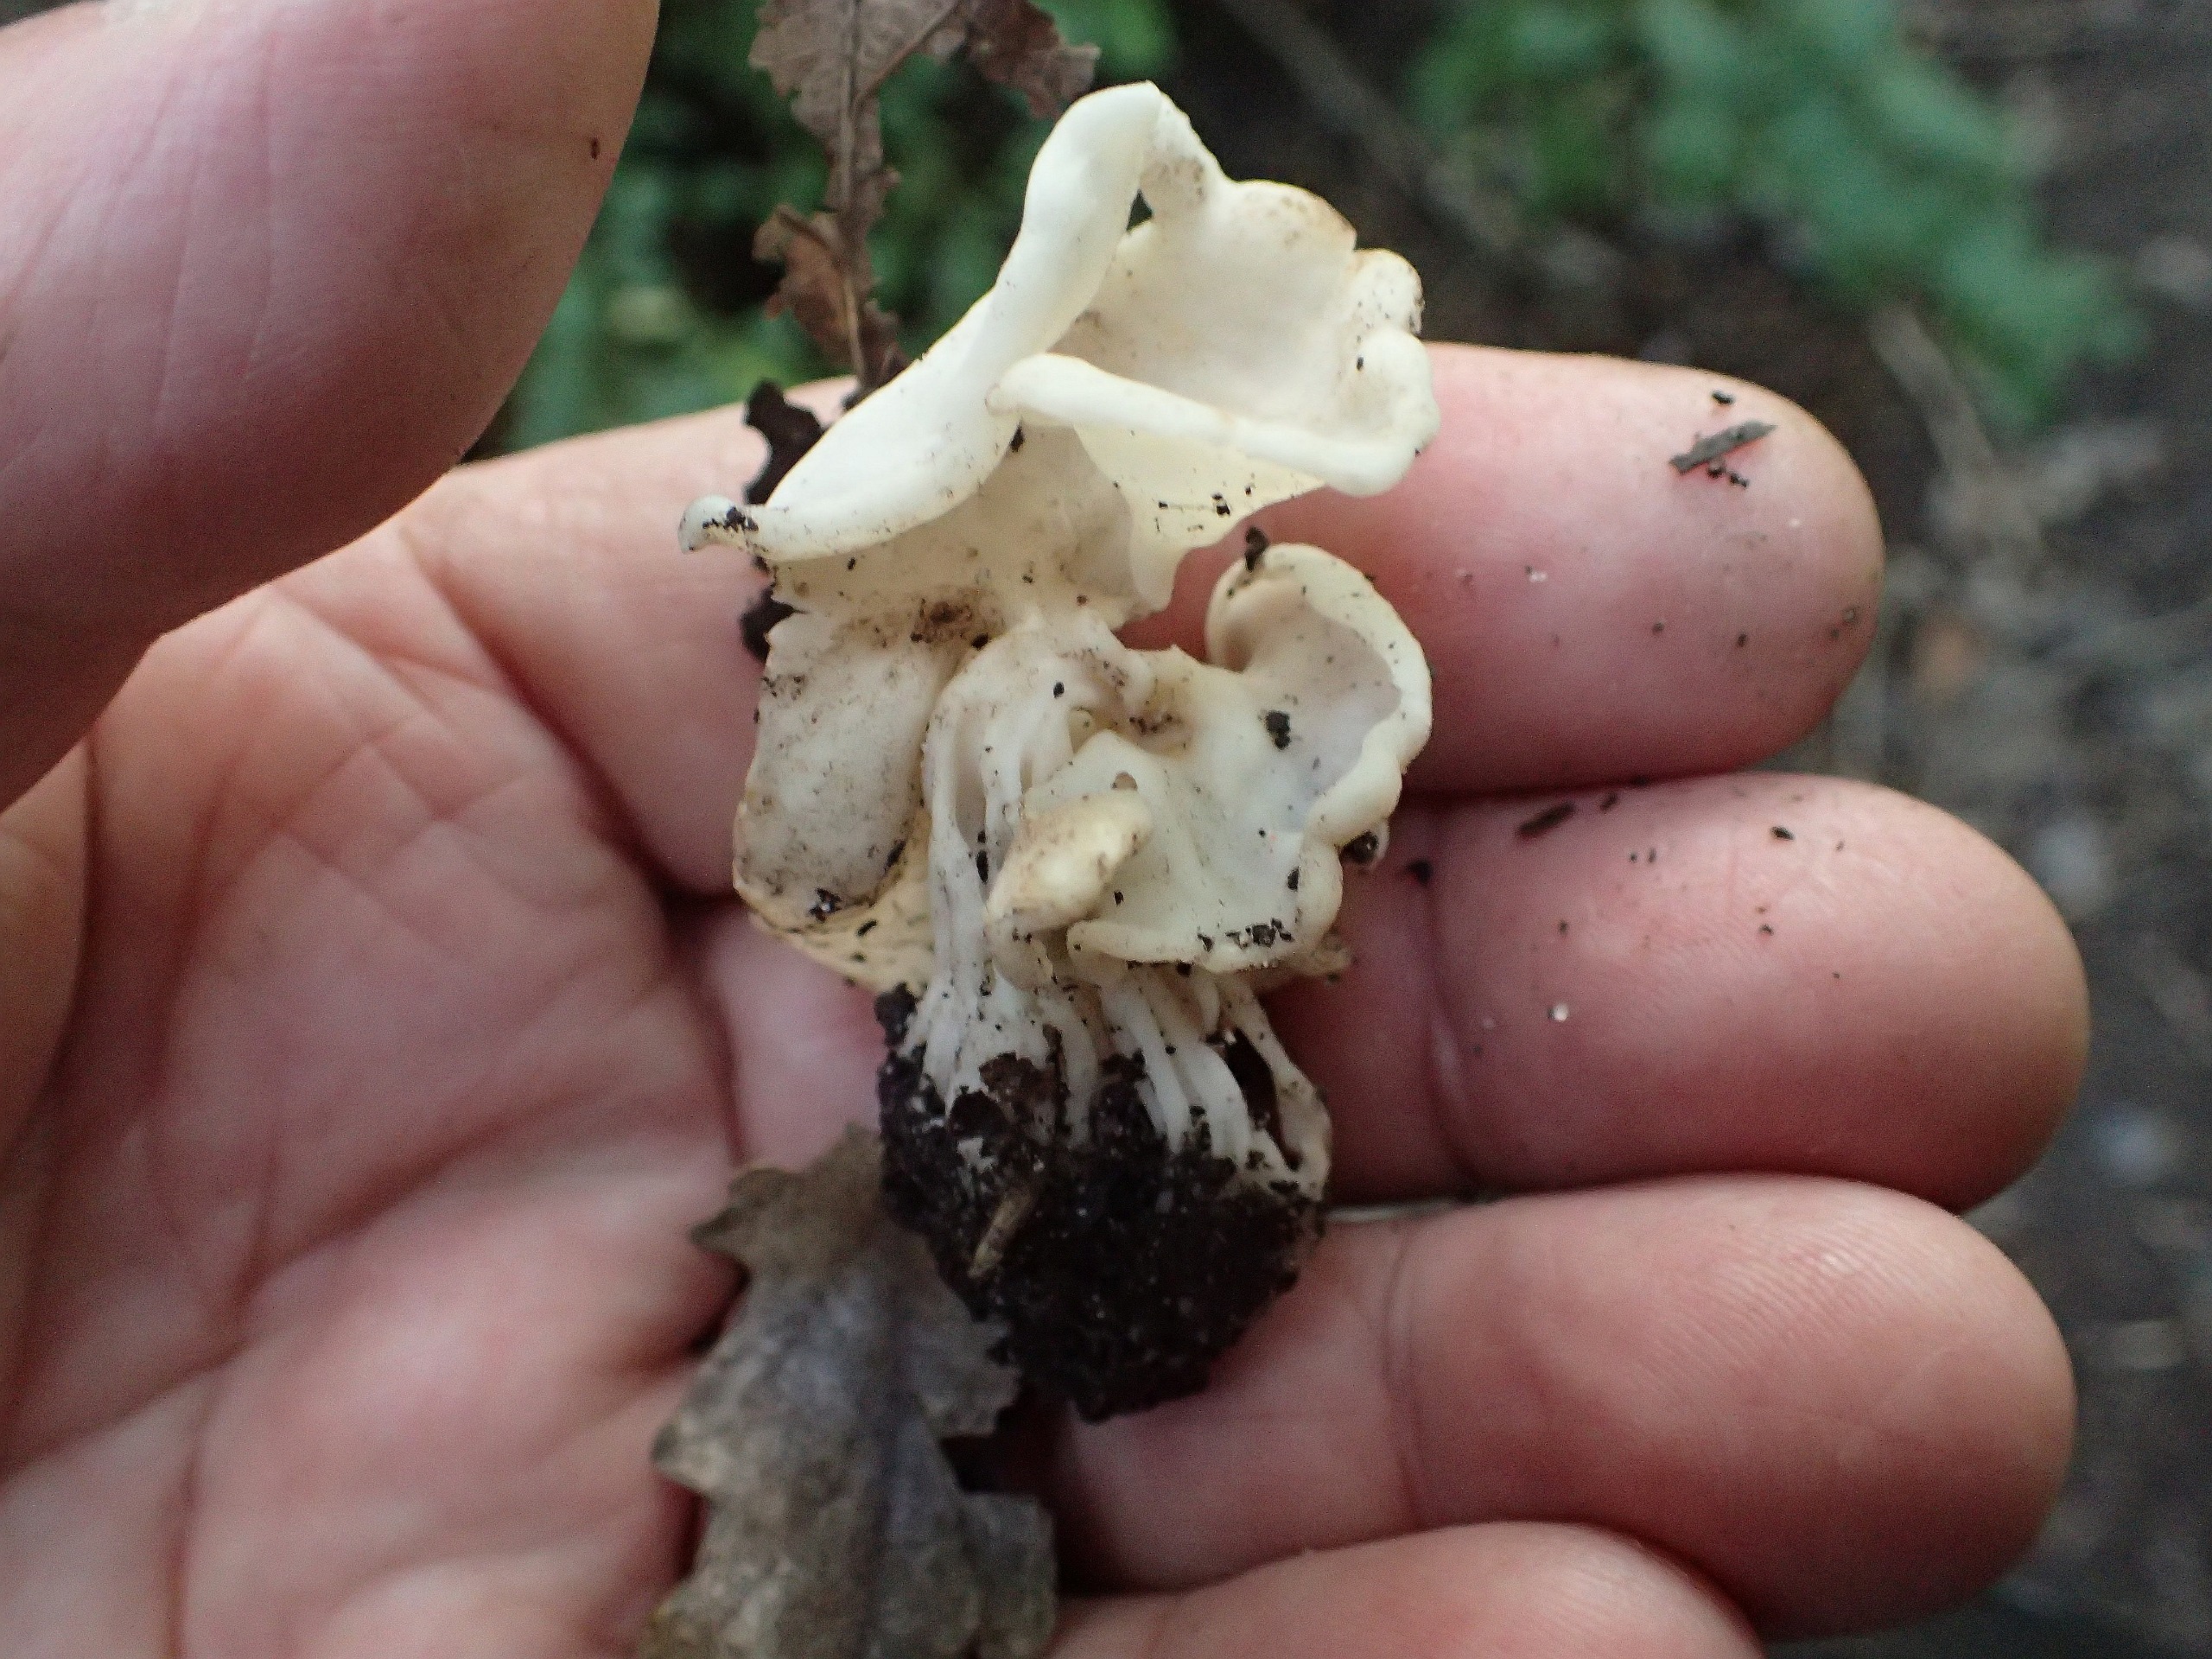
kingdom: Fungi
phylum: Ascomycota
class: Pezizomycetes
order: Pezizales
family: Helvellaceae
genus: Helvella
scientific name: Helvella crispa
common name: Kruset foldhat
